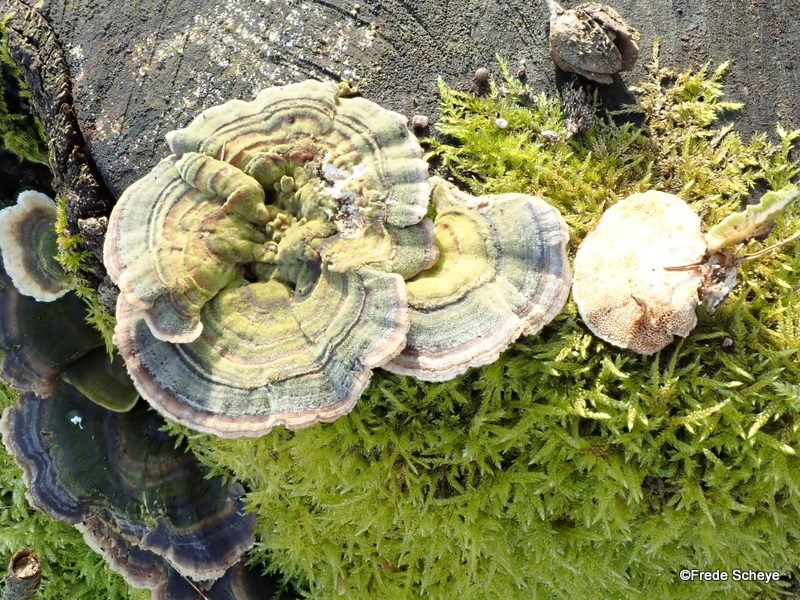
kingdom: Fungi
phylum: Basidiomycota
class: Agaricomycetes
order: Polyporales
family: Polyporaceae
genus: Trametes
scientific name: Trametes versicolor
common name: broget læderporesvamp
